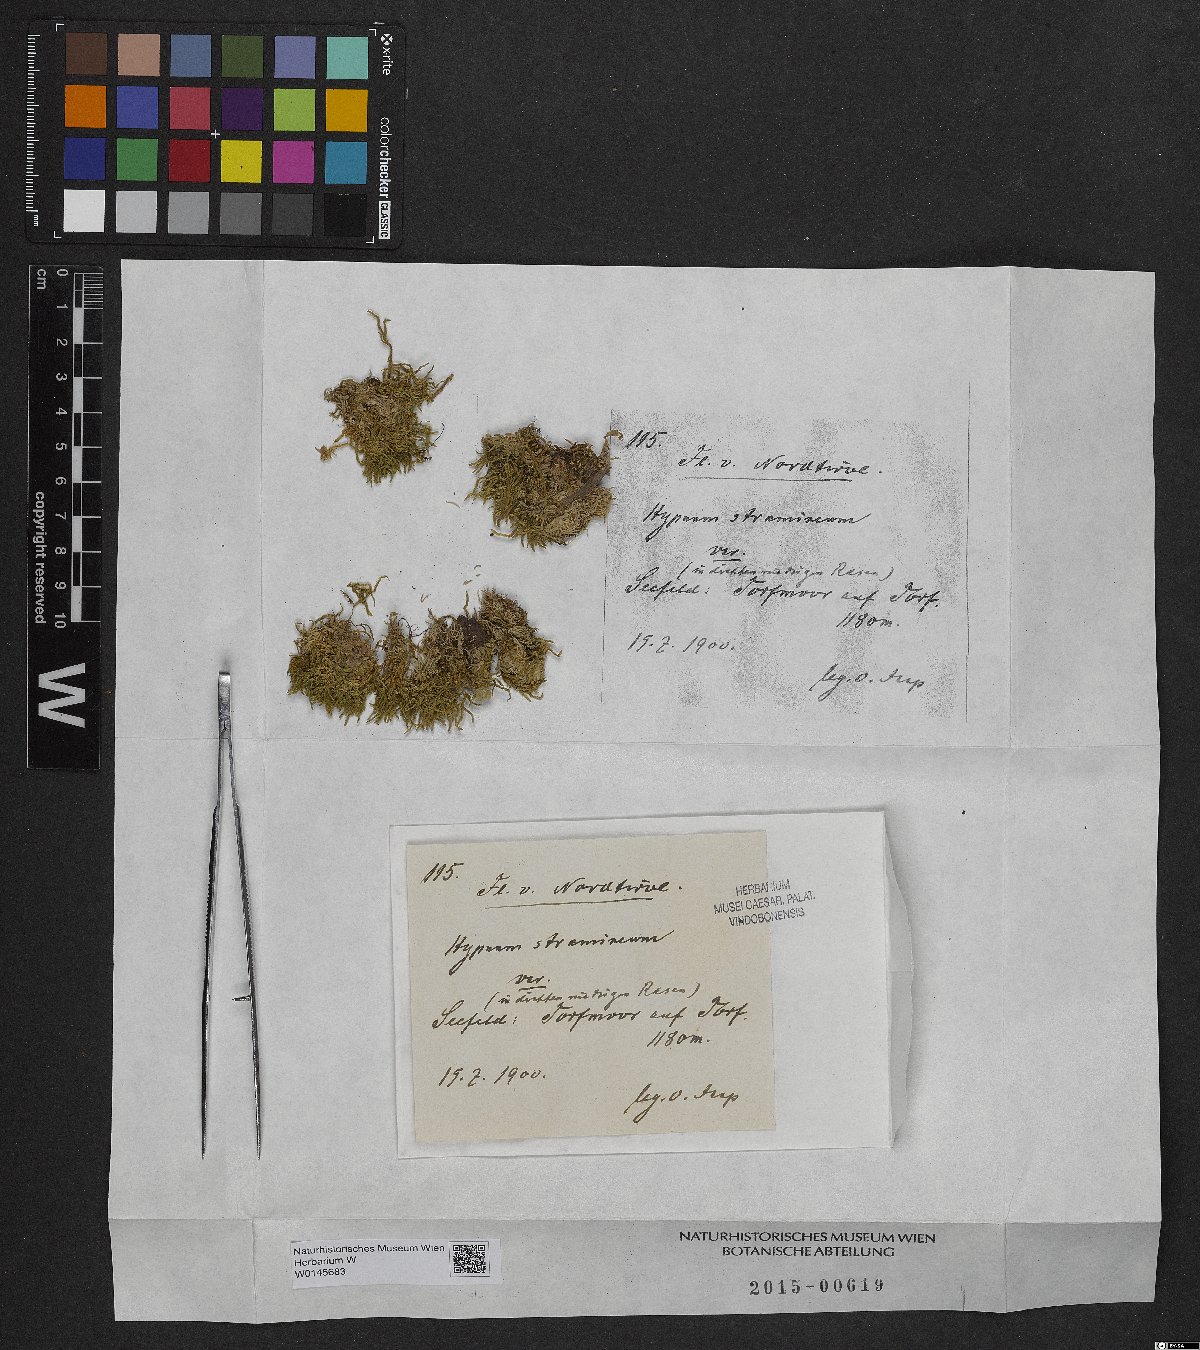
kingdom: Plantae
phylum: Bryophyta
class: Bryopsida
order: Hypnales
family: Calliergonaceae
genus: Straminergon
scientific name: Straminergon stramineum
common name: Straw moss
